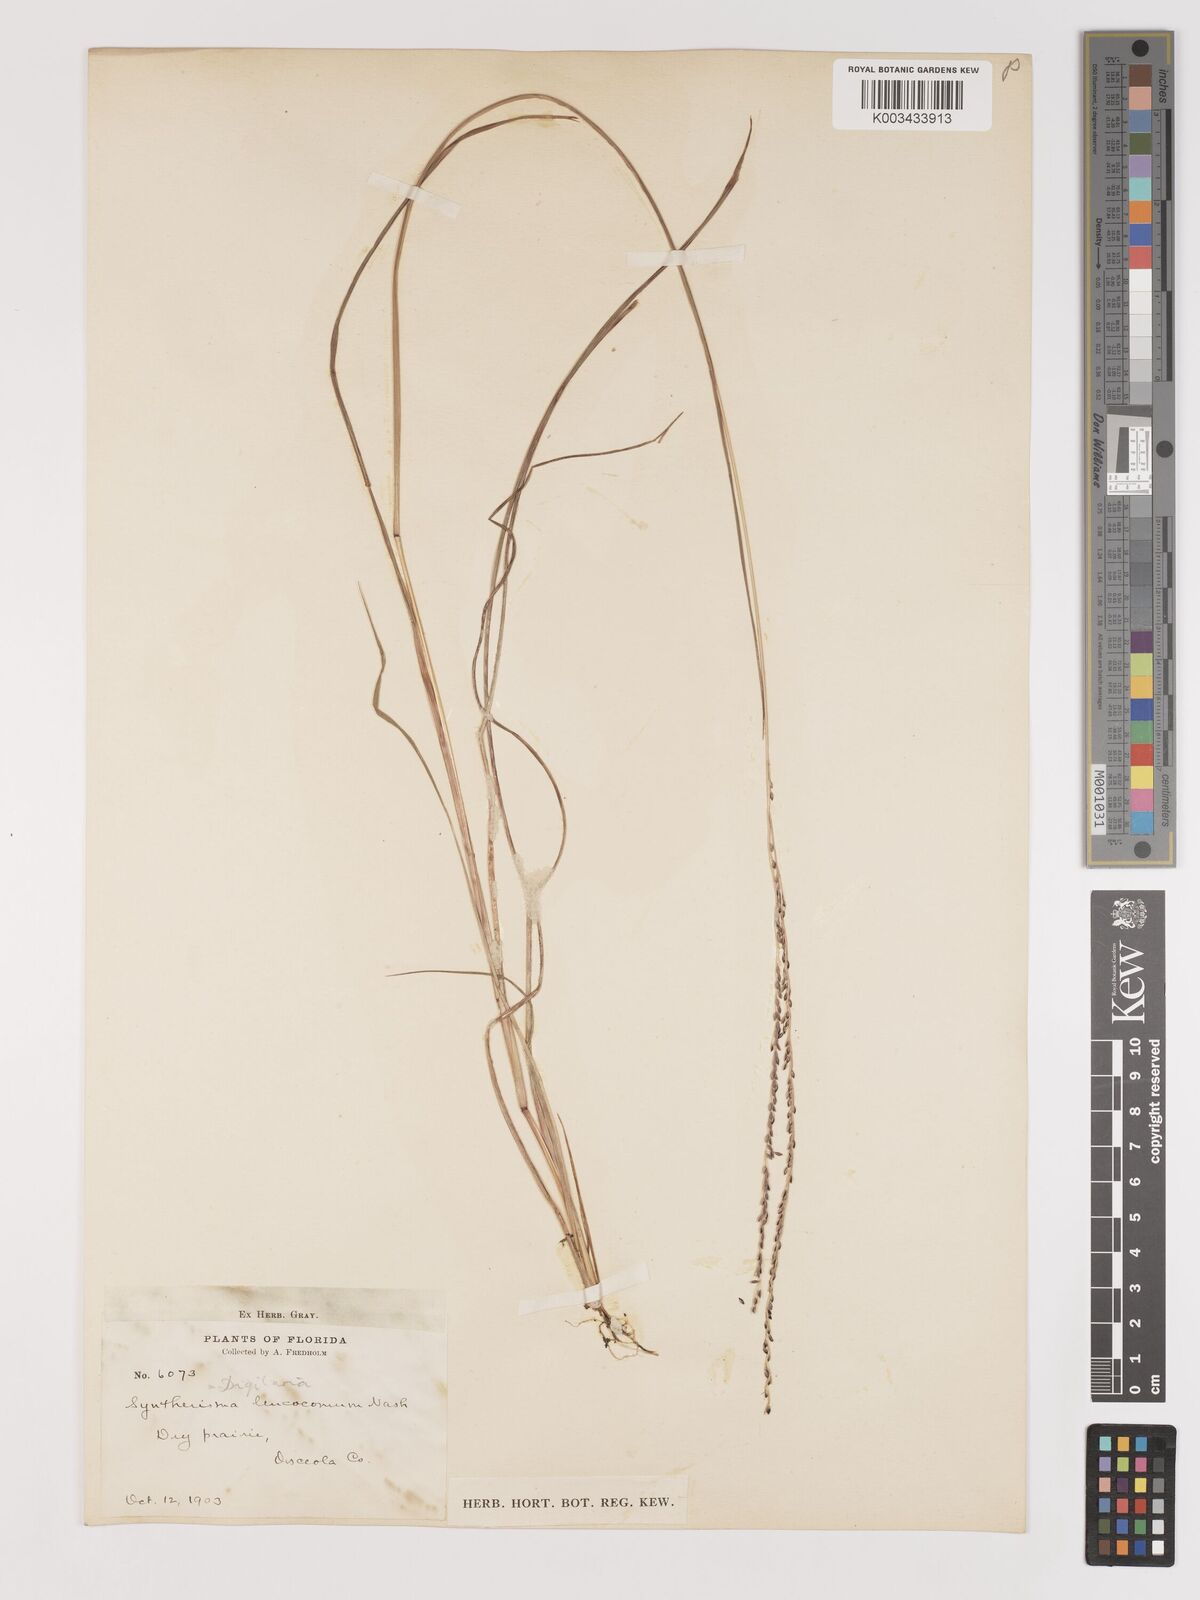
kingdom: Plantae
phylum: Tracheophyta
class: Liliopsida
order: Poales
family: Poaceae
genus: Digitaria
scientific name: Digitaria villosa
